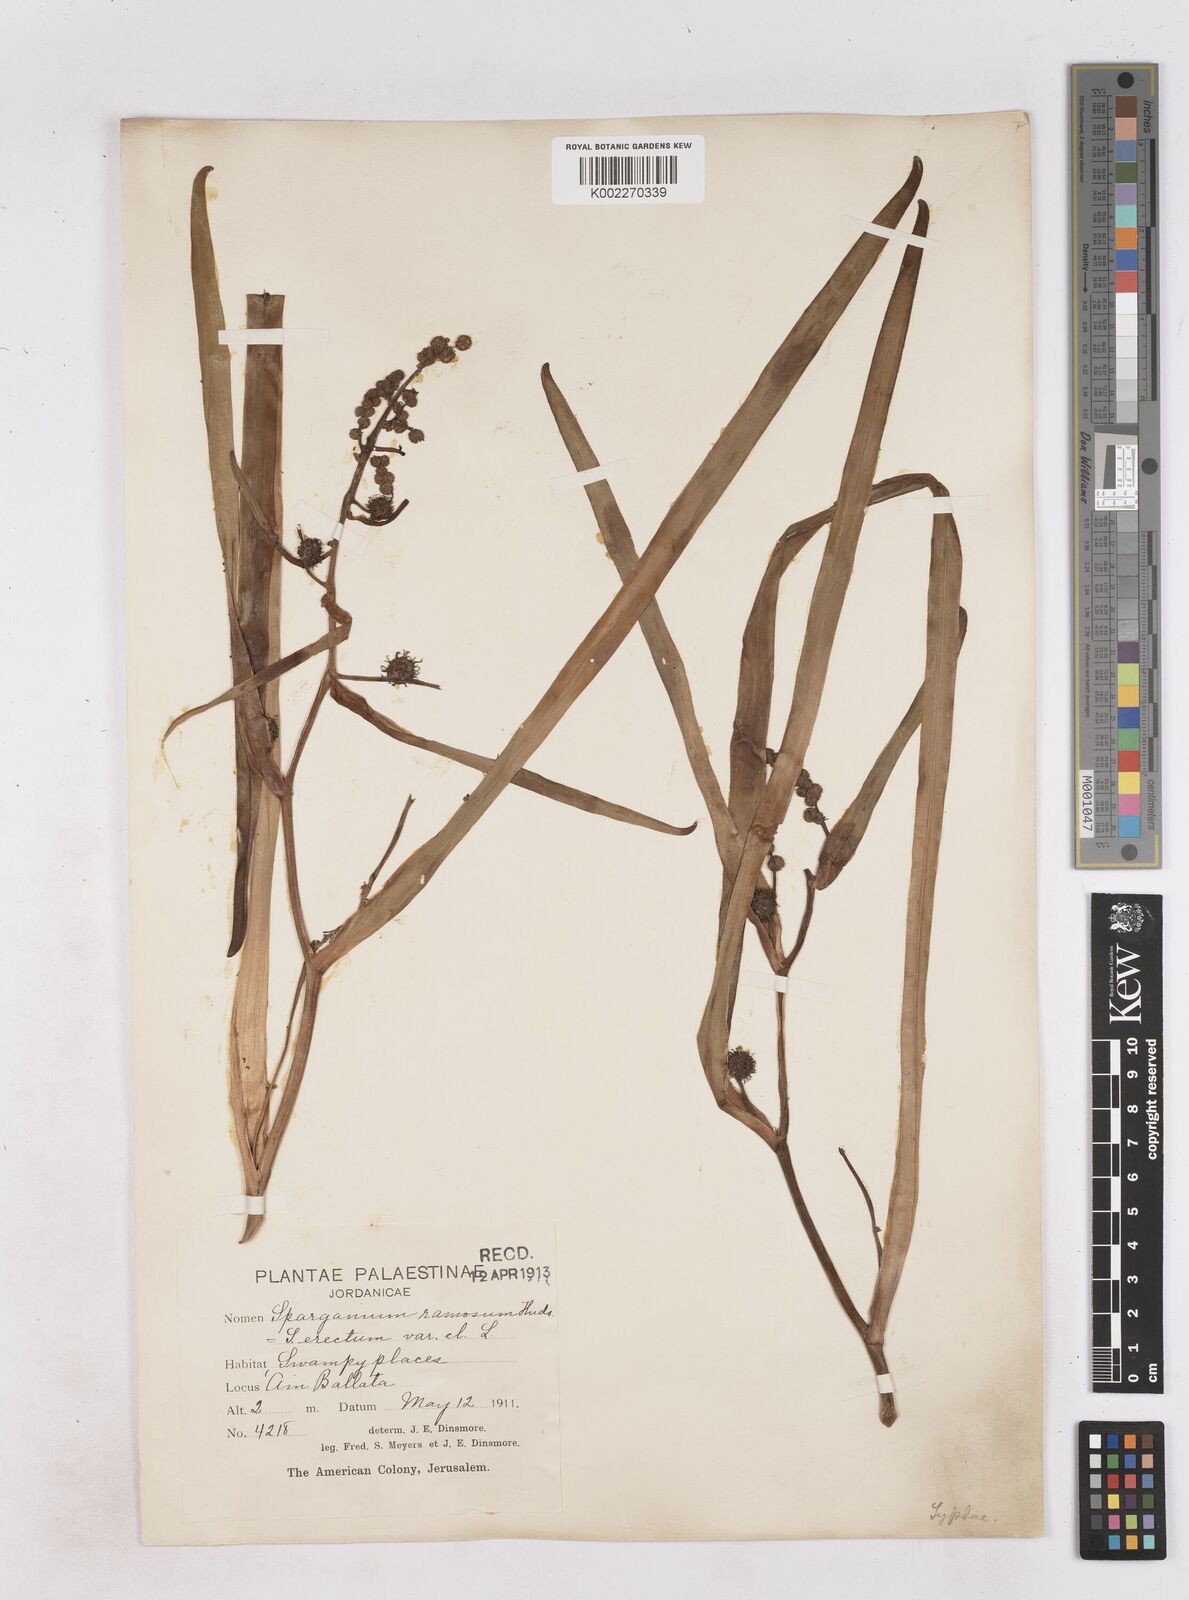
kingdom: Plantae
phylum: Tracheophyta
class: Liliopsida
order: Poales
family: Typhaceae
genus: Sparganium
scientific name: Sparganium erectum
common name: Branched bur-reed
